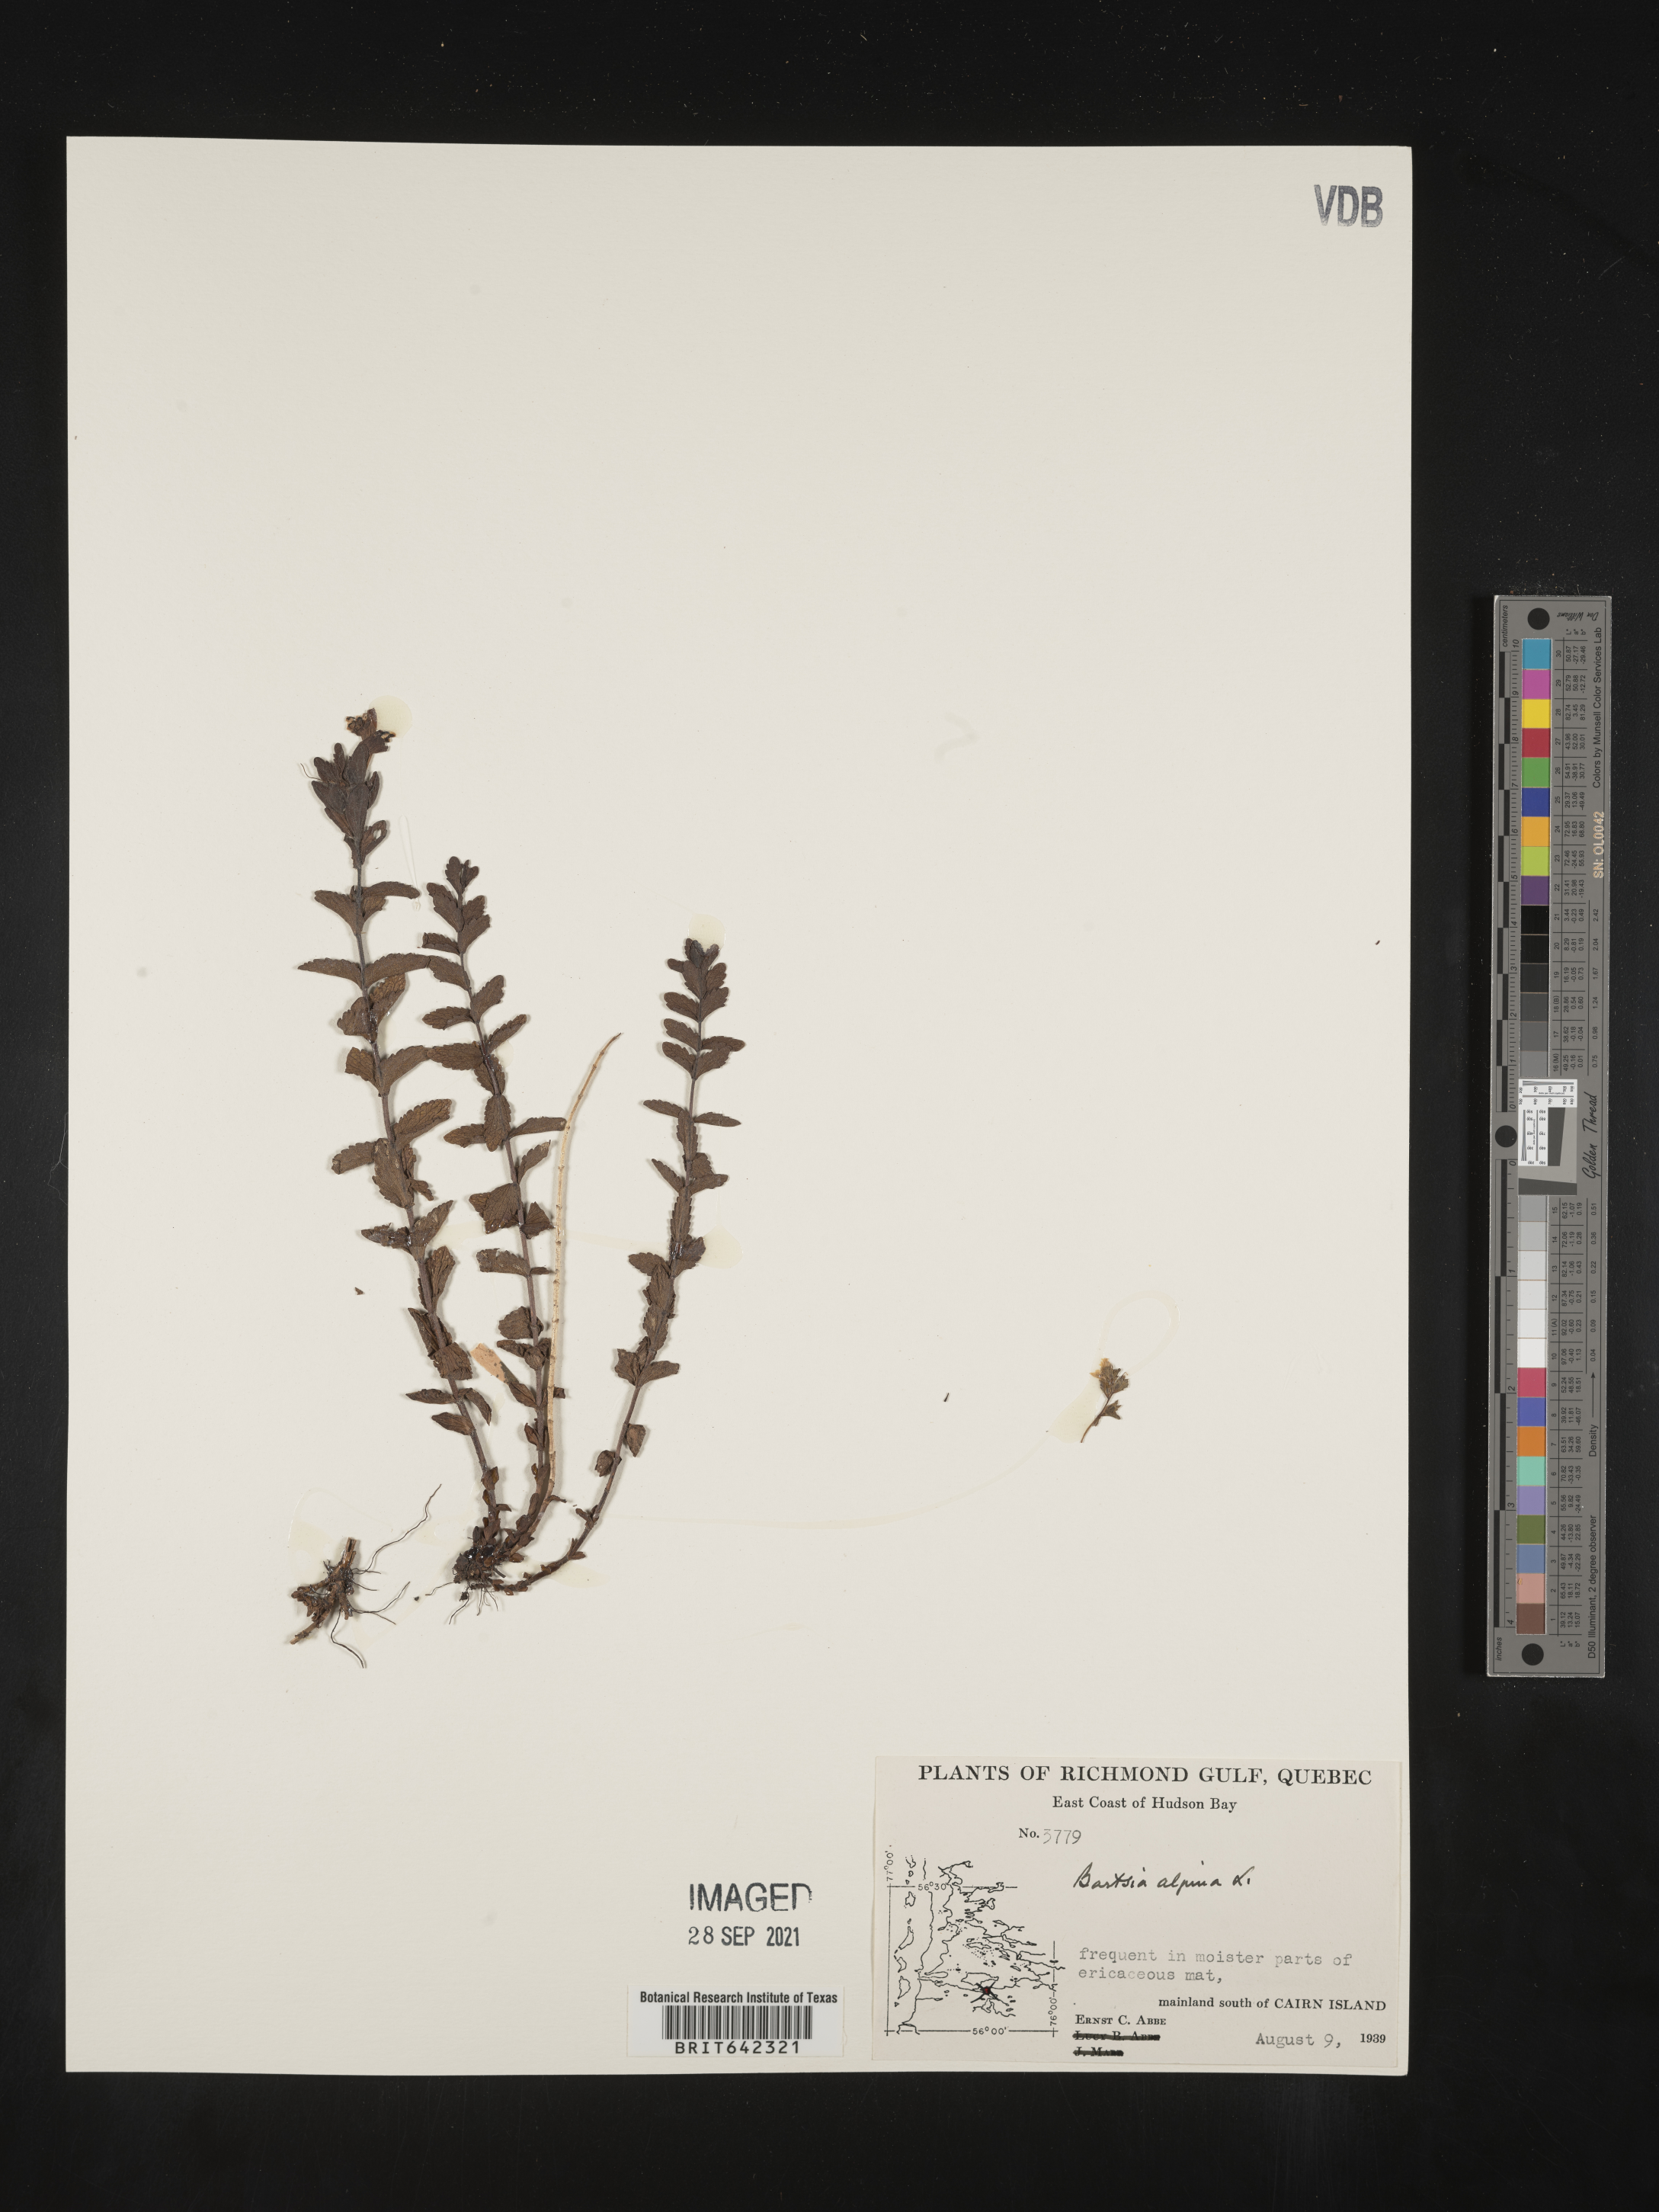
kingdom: Plantae
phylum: Tracheophyta
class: Magnoliopsida
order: Lamiales
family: Orobanchaceae
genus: Bartsia
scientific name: Bartsia
